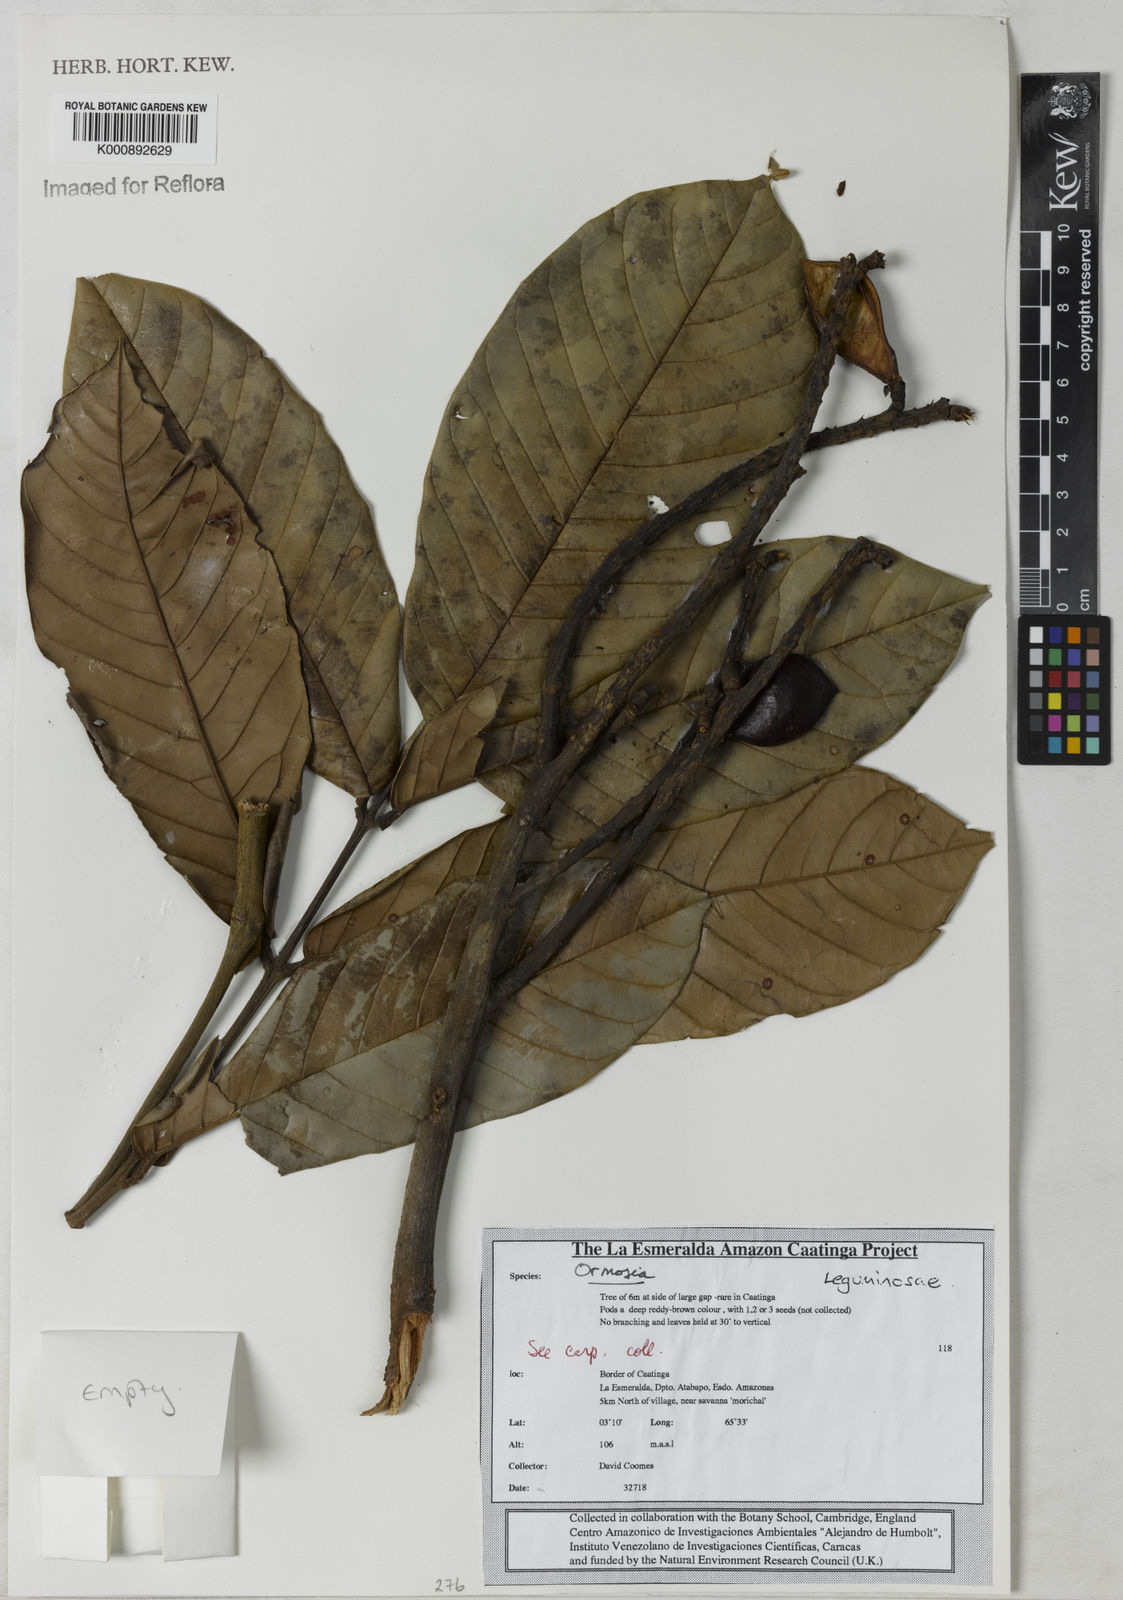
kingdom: Plantae
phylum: Tracheophyta
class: Magnoliopsida
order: Fabales
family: Fabaceae
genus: Ormosia
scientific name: Ormosia
